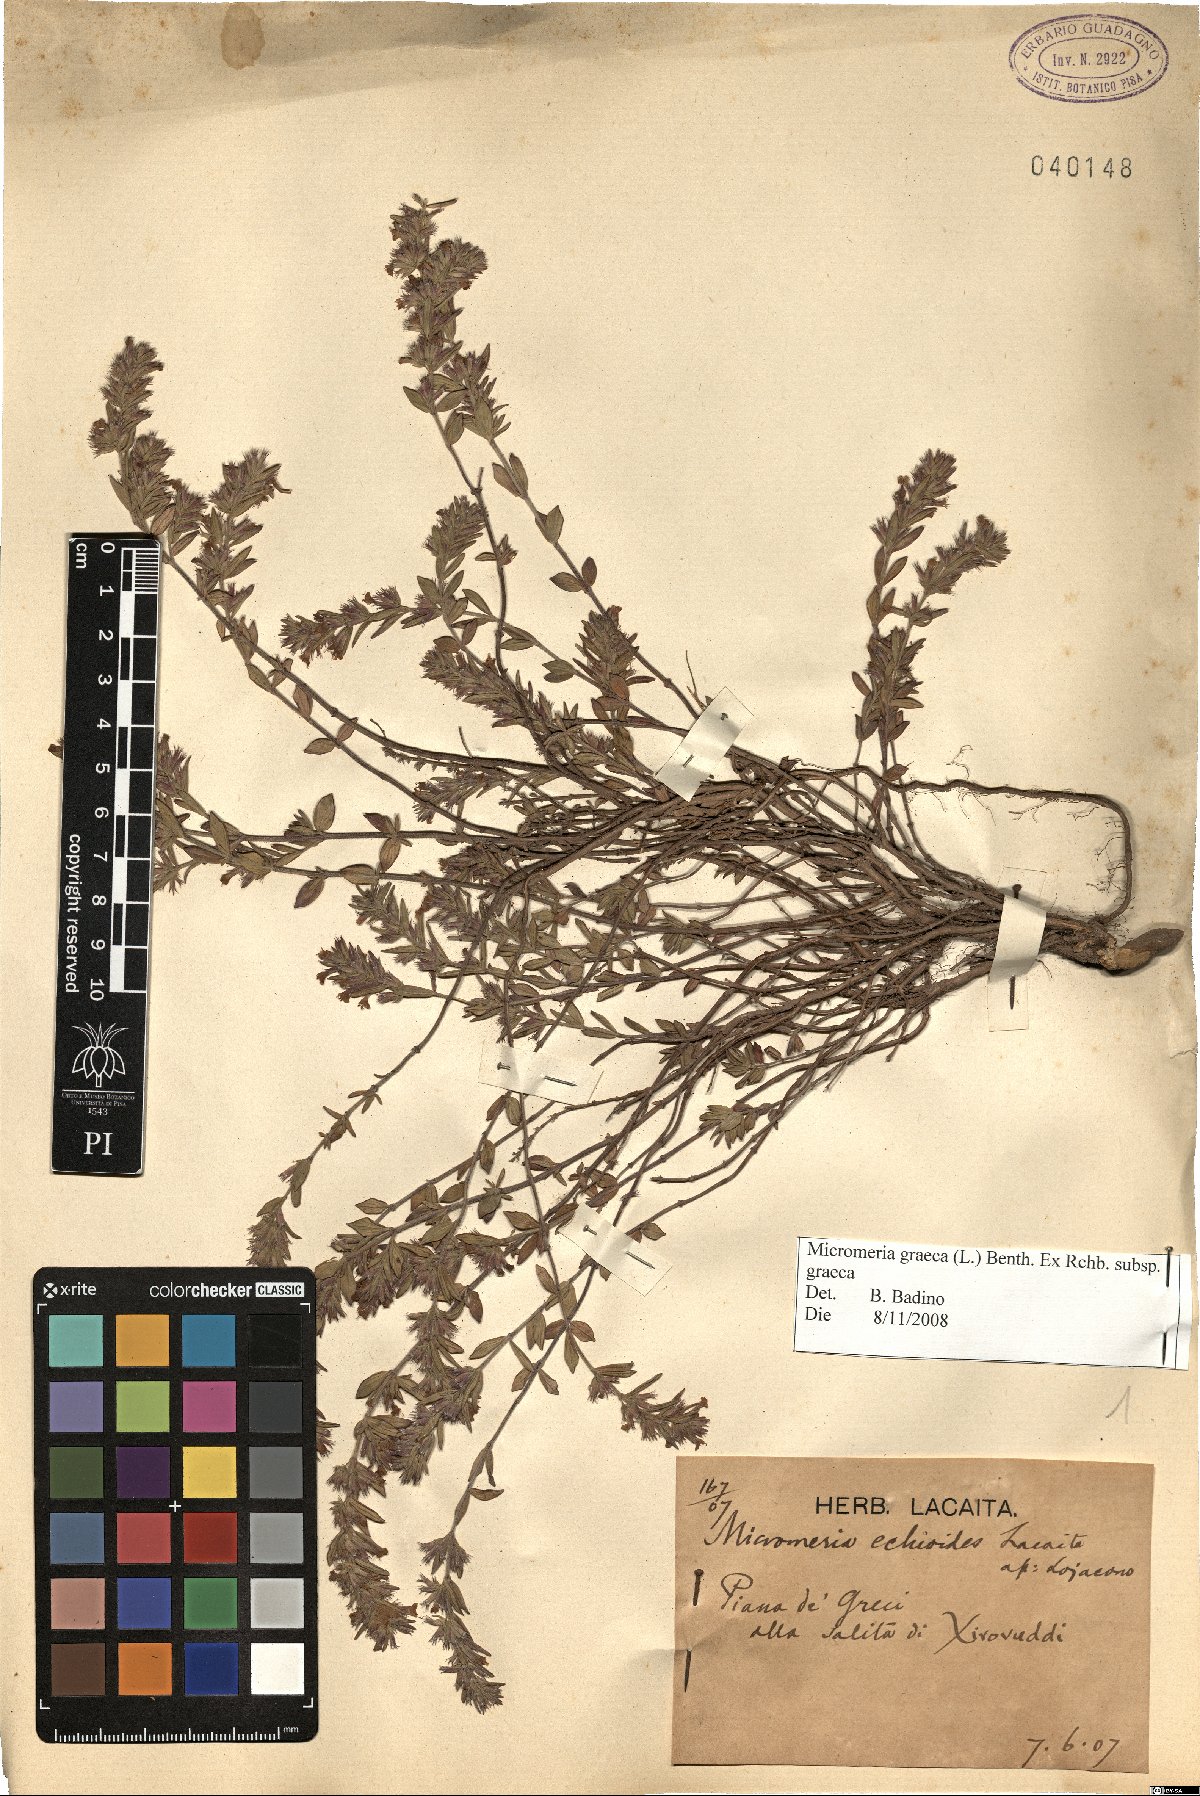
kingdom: Plantae
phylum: Tracheophyta
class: Magnoliopsida
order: Lamiales
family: Lamiaceae
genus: Micromeria
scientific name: Micromeria graeca
